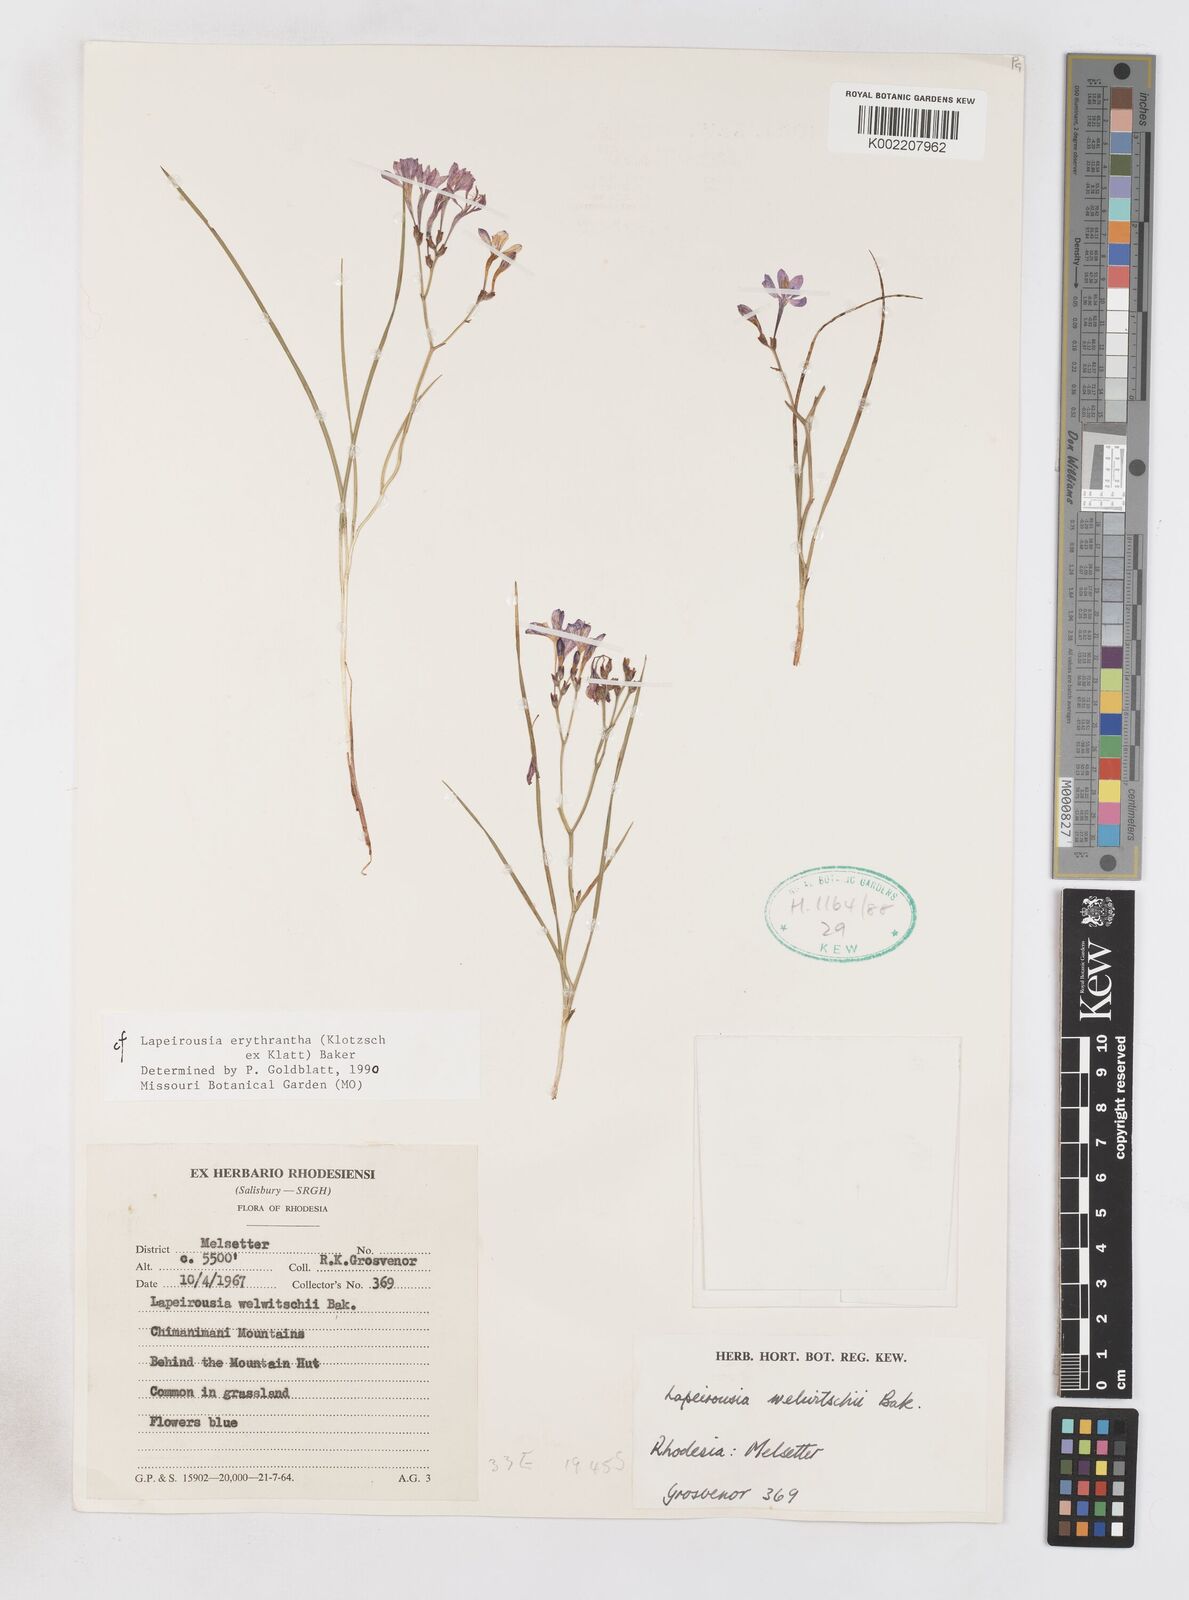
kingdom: Plantae
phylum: Tracheophyta
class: Liliopsida
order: Asparagales
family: Iridaceae
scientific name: Iridaceae
